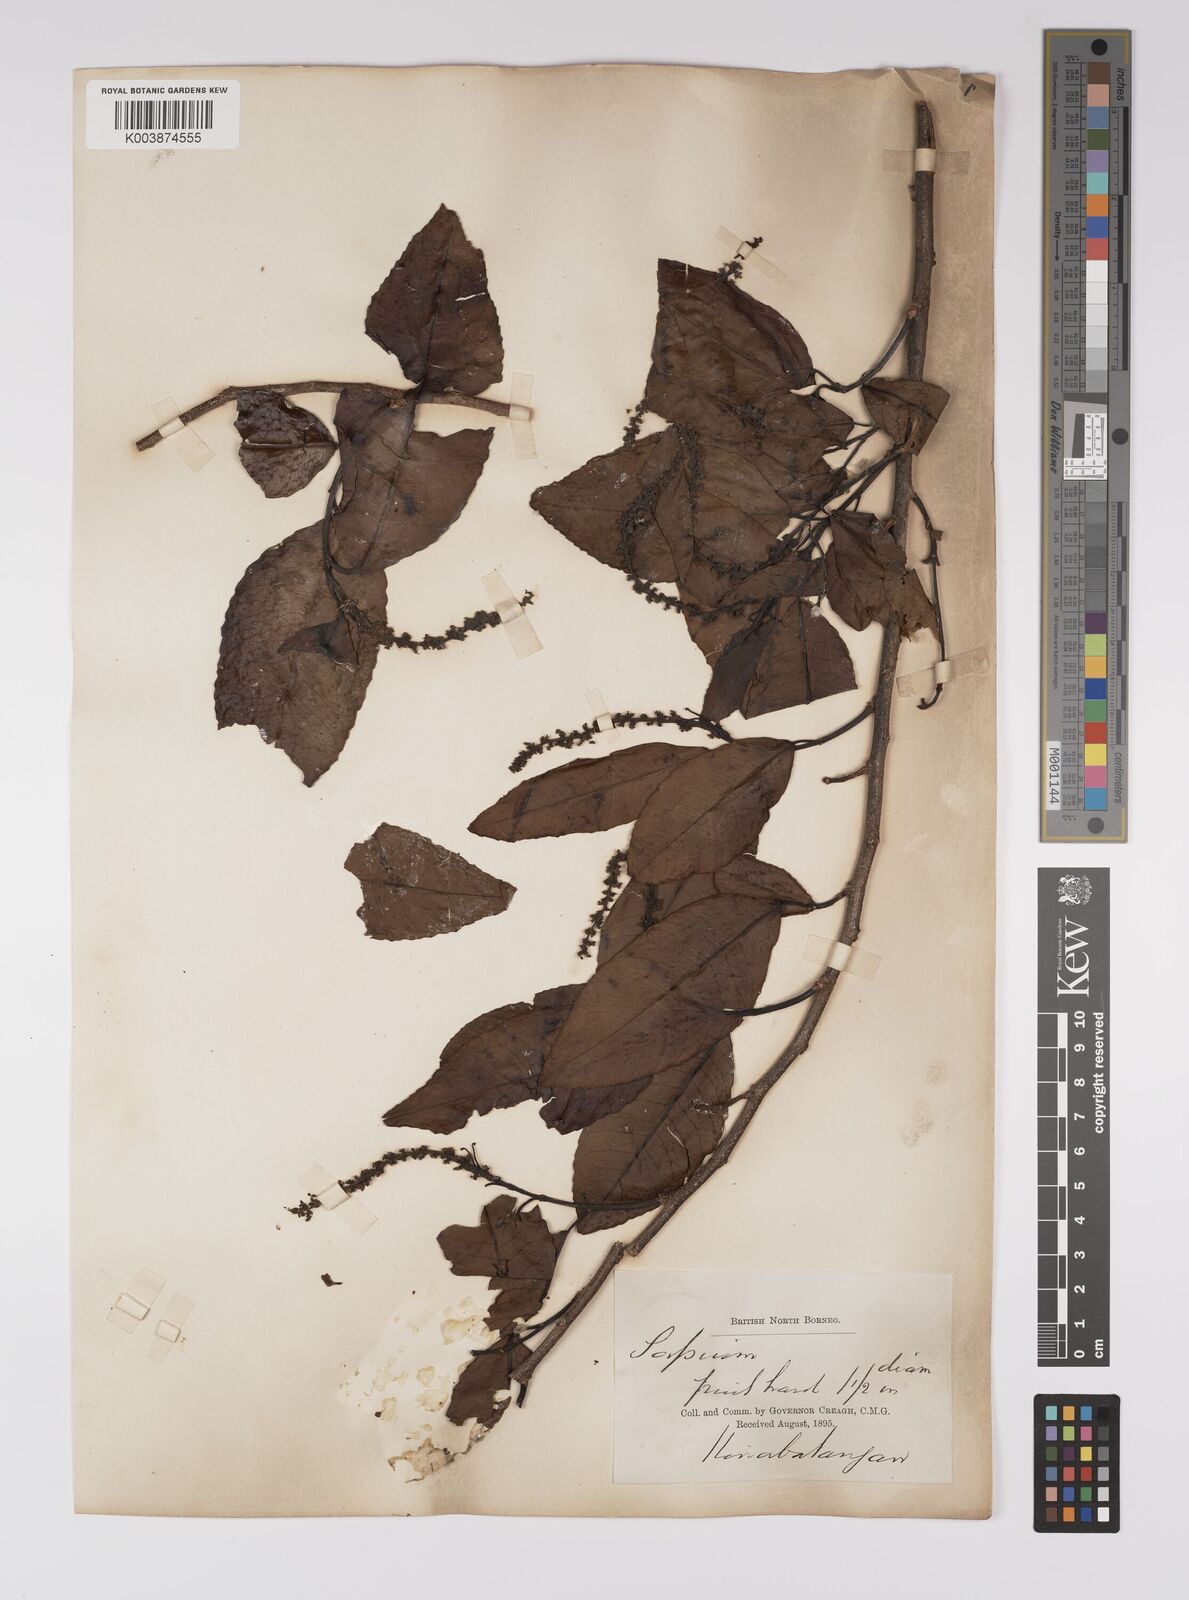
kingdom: Plantae
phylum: Tracheophyta
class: Magnoliopsida
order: Malpighiales
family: Euphorbiaceae
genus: Shirakiopsis
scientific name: Shirakiopsis indica
